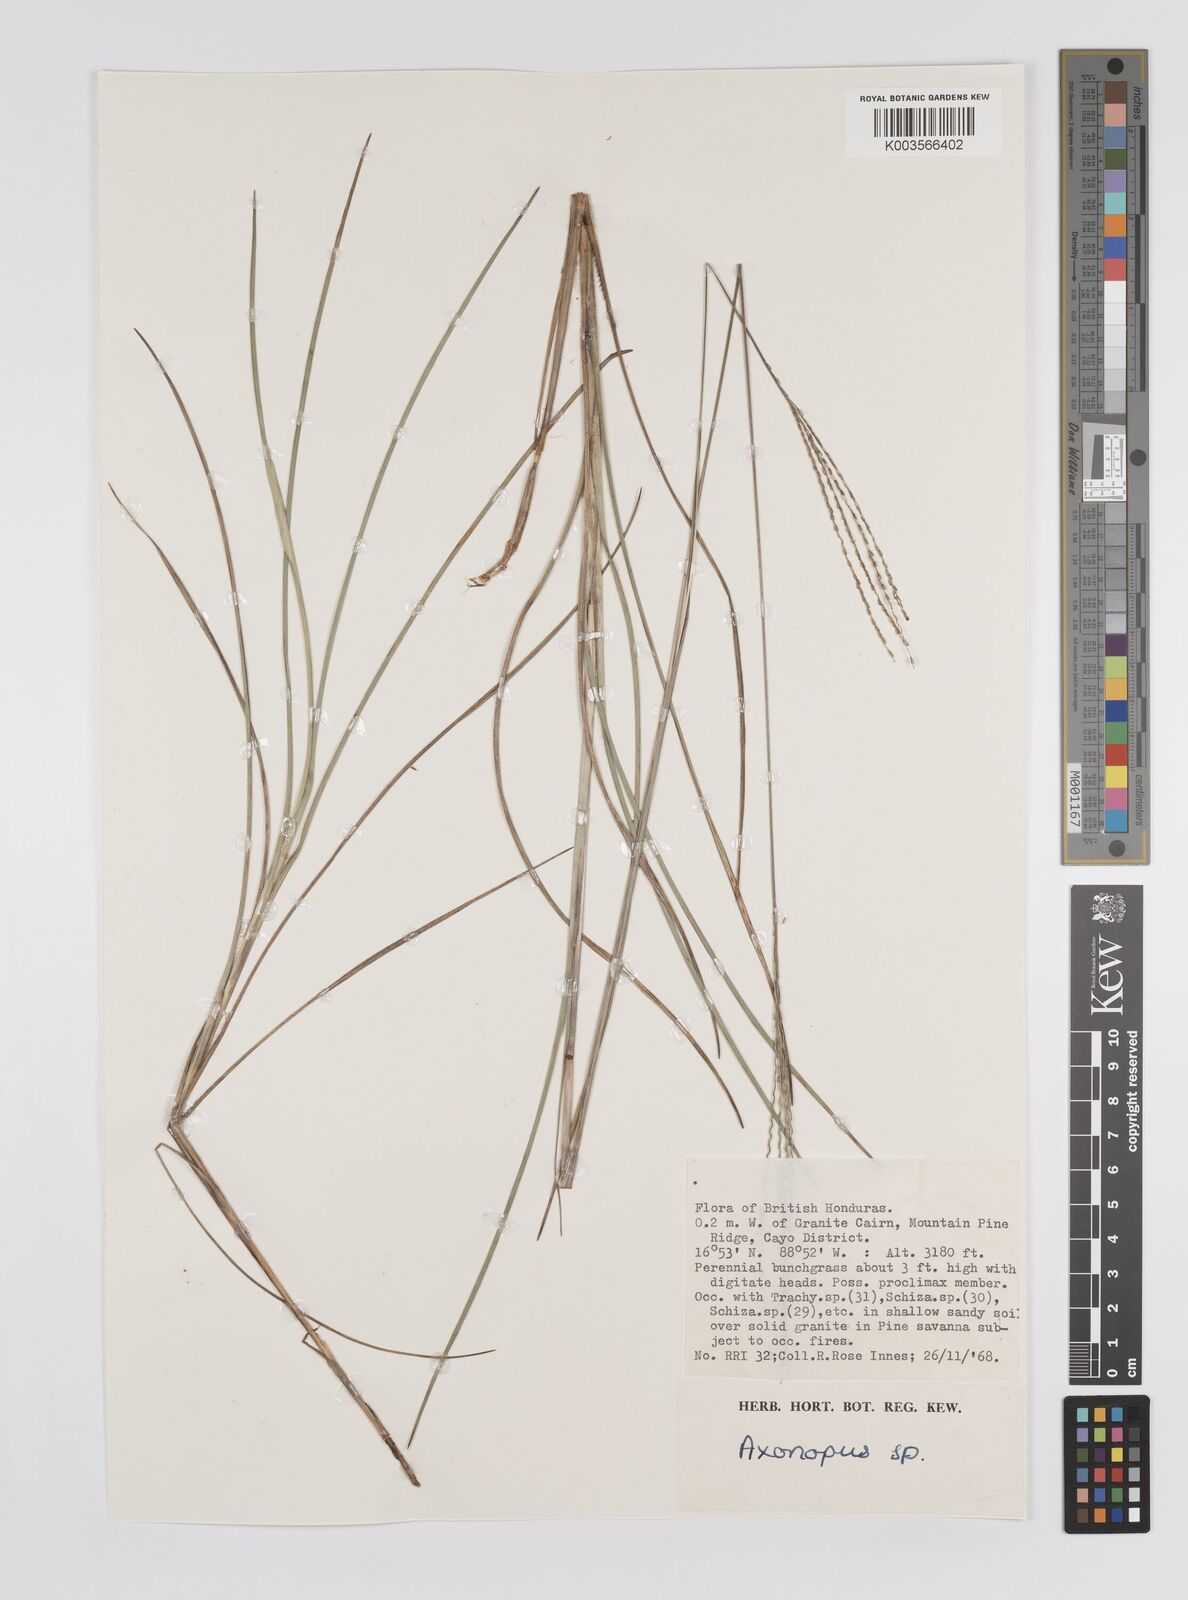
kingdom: Plantae
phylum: Tracheophyta
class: Liliopsida
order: Poales
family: Poaceae
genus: Axonopus
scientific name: Axonopus
